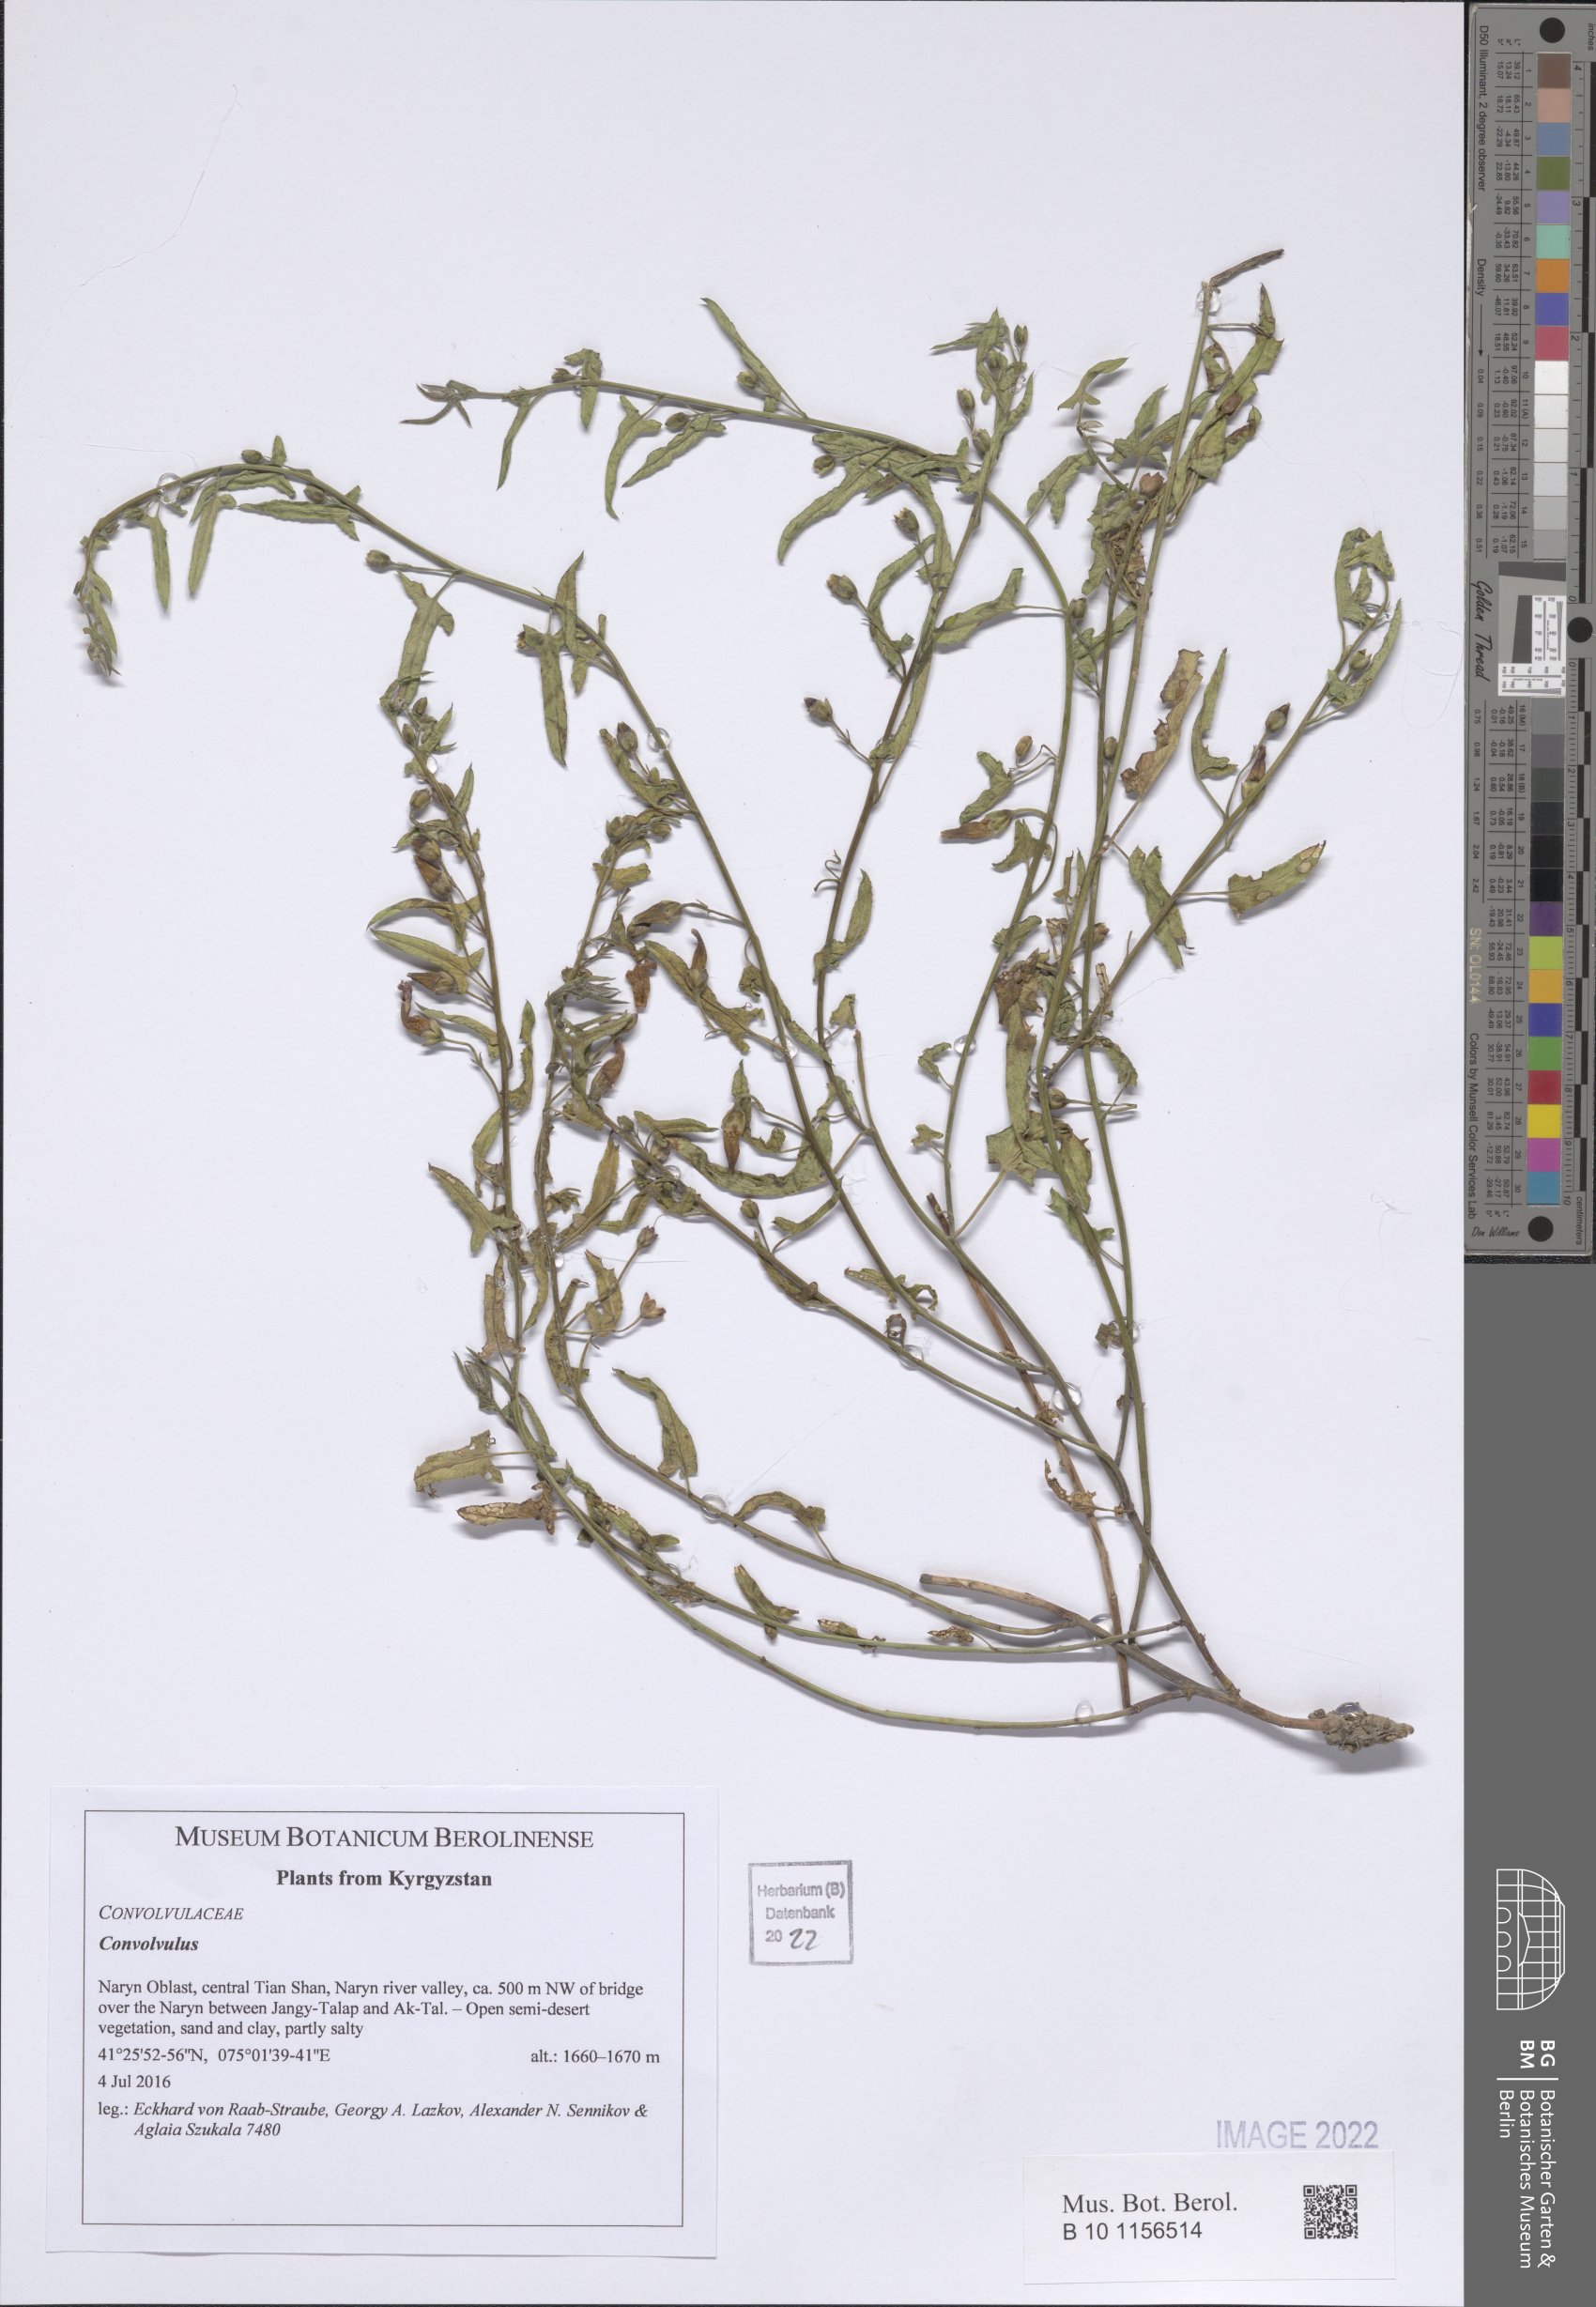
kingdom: Plantae
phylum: Tracheophyta
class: Magnoliopsida
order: Solanales
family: Convolvulaceae
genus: Convolvulus
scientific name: Convolvulus
